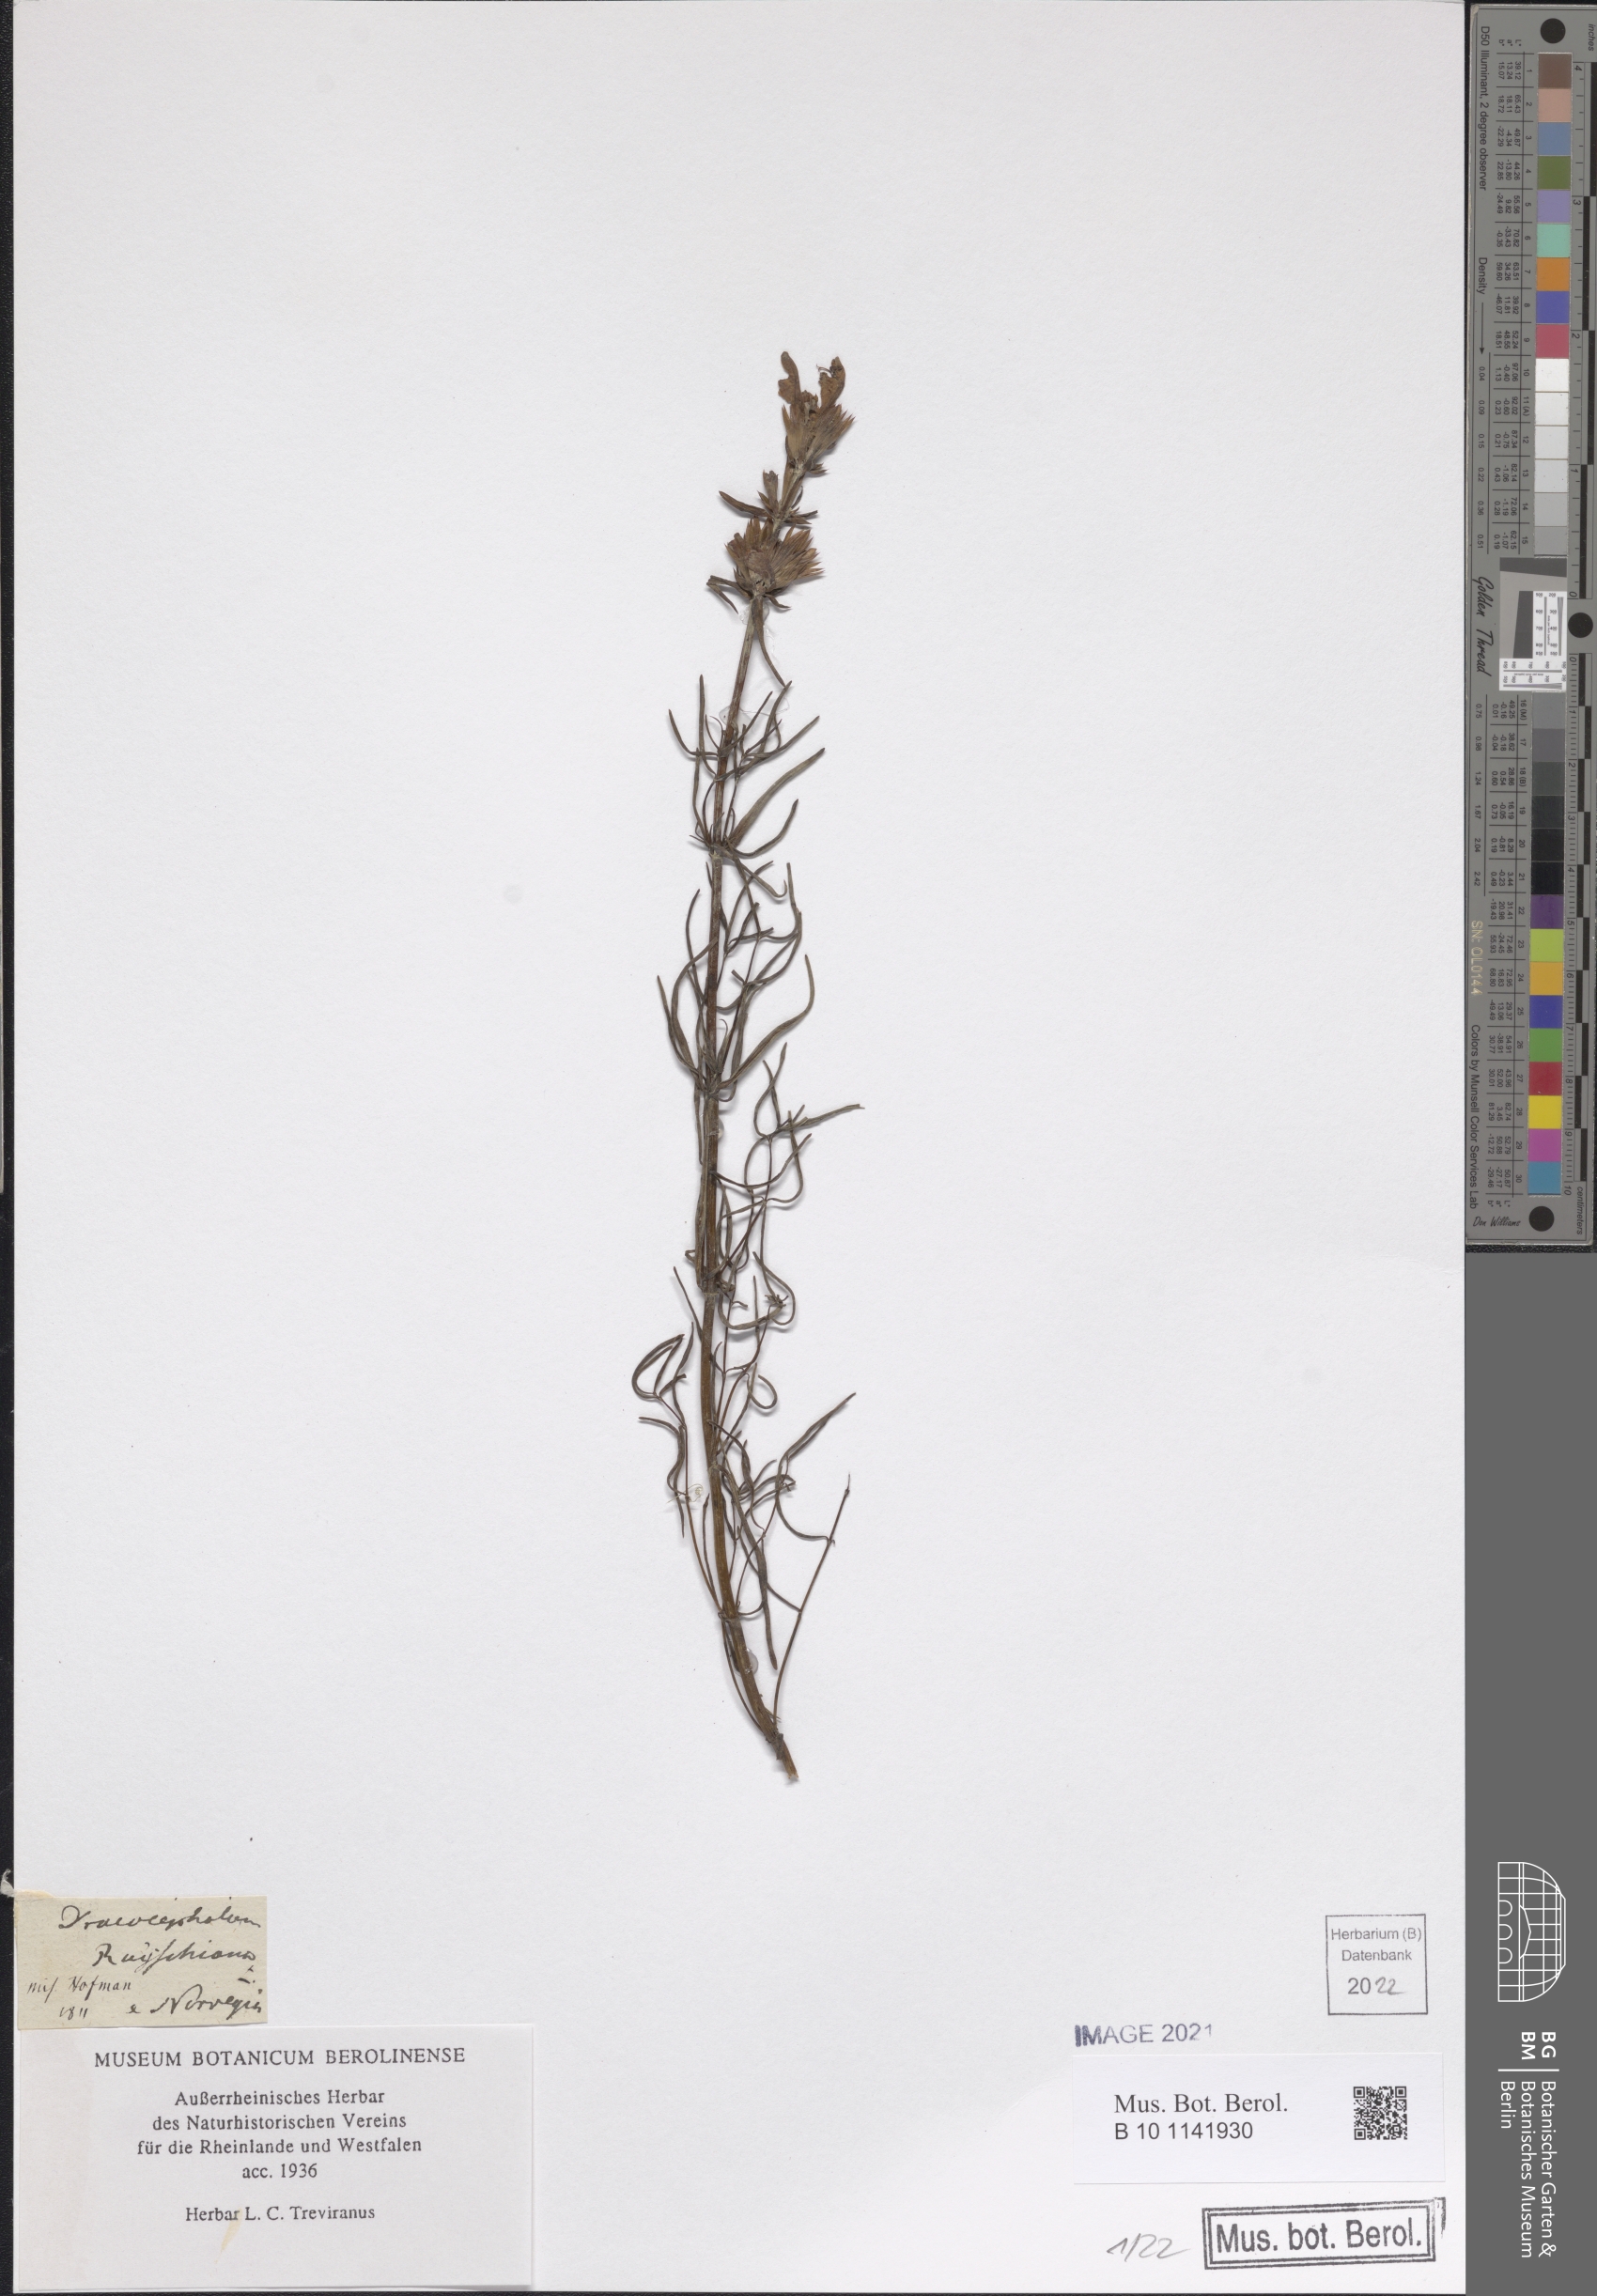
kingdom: Plantae
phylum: Tracheophyta
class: Magnoliopsida
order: Lamiales
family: Lamiaceae
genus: Dracocephalum
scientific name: Dracocephalum ruyschiana
